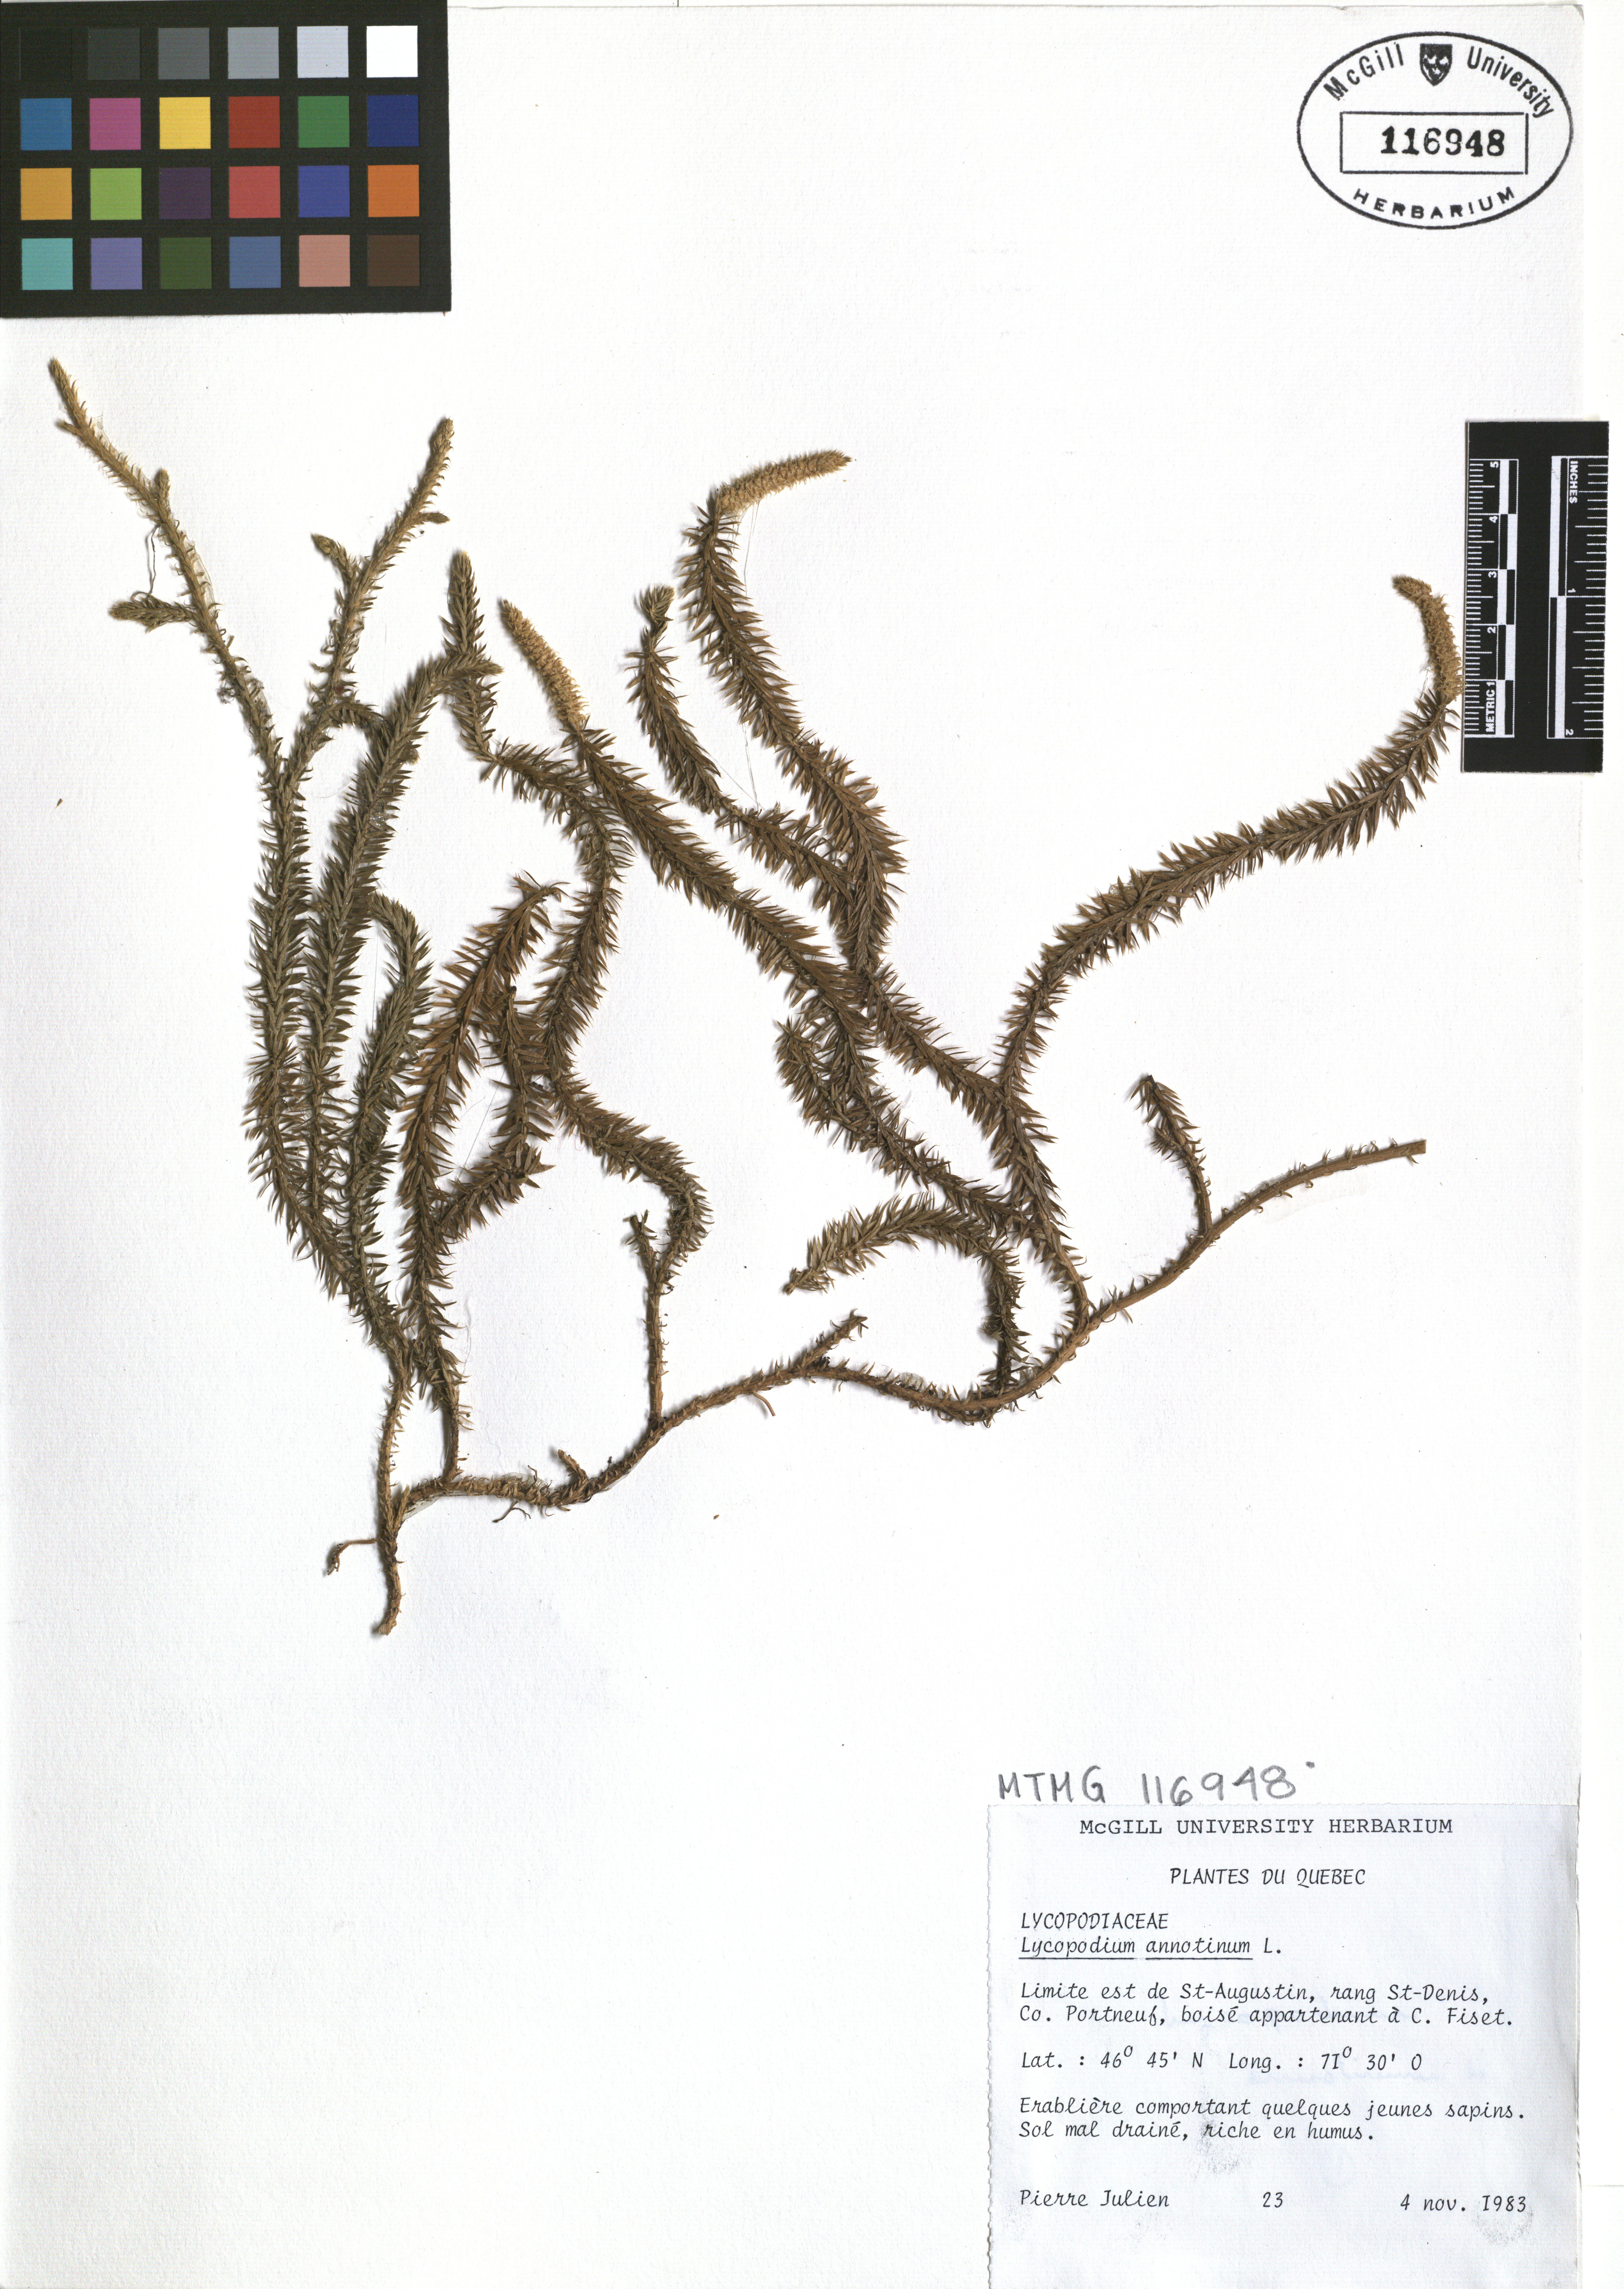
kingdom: Plantae
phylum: Tracheophyta
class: Lycopodiopsida
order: Lycopodiales
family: Lycopodiaceae
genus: Spinulum
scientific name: Spinulum annotinum
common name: Interrupted club-moss
